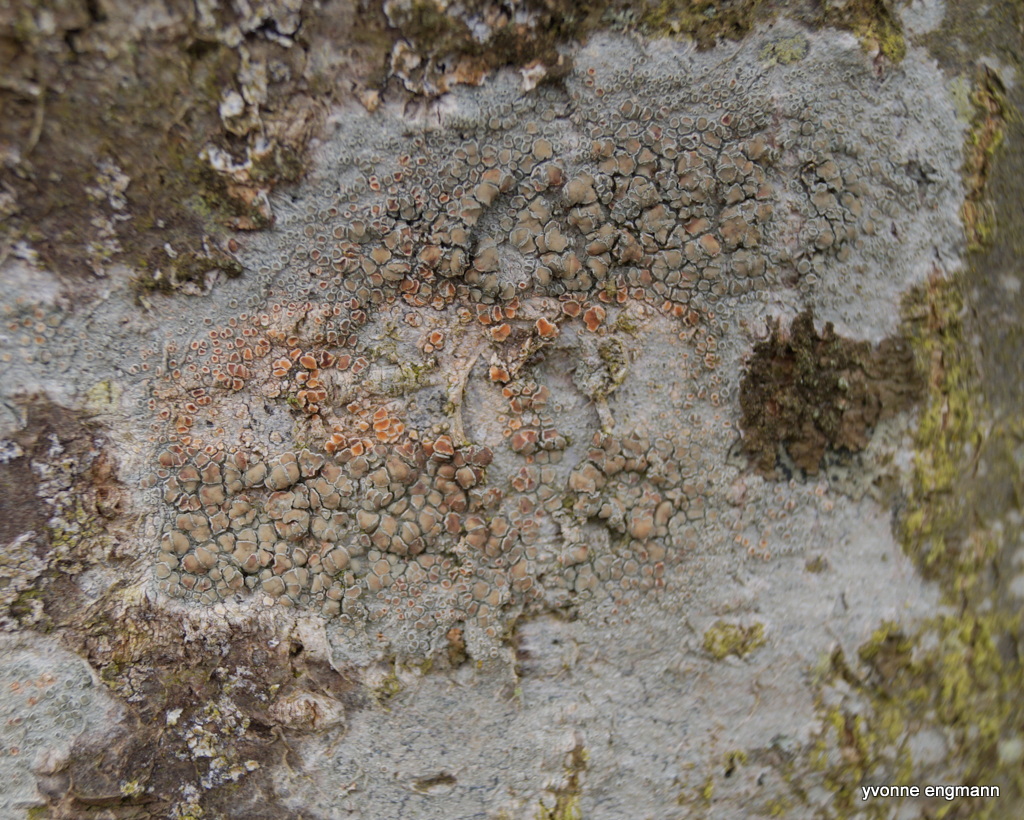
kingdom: Fungi
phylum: Ascomycota
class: Lecanoromycetes
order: Lecanorales
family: Lecanoraceae
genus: Lecanora
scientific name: Lecanora chlarotera
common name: brun kantskivelav
